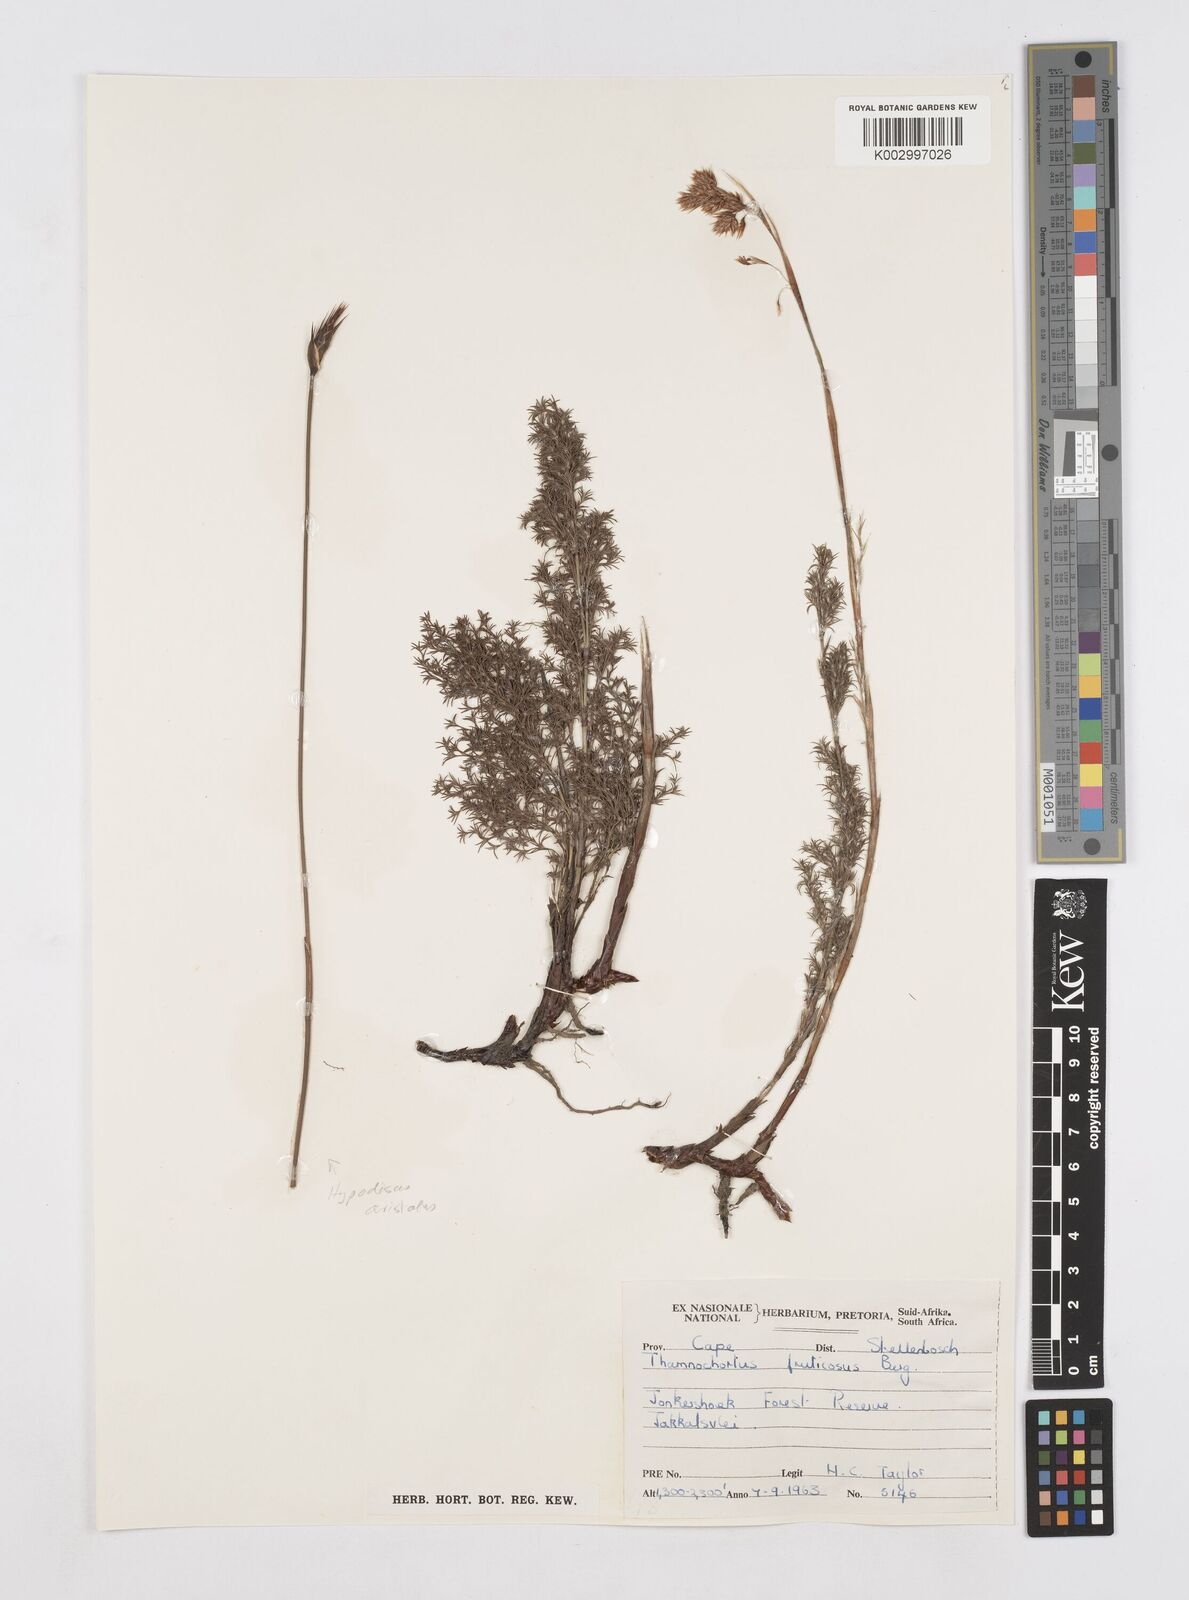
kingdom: Plantae
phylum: Tracheophyta
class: Liliopsida
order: Poales
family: Restionaceae
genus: Thamnochortus
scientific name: Thamnochortus fruticosus
